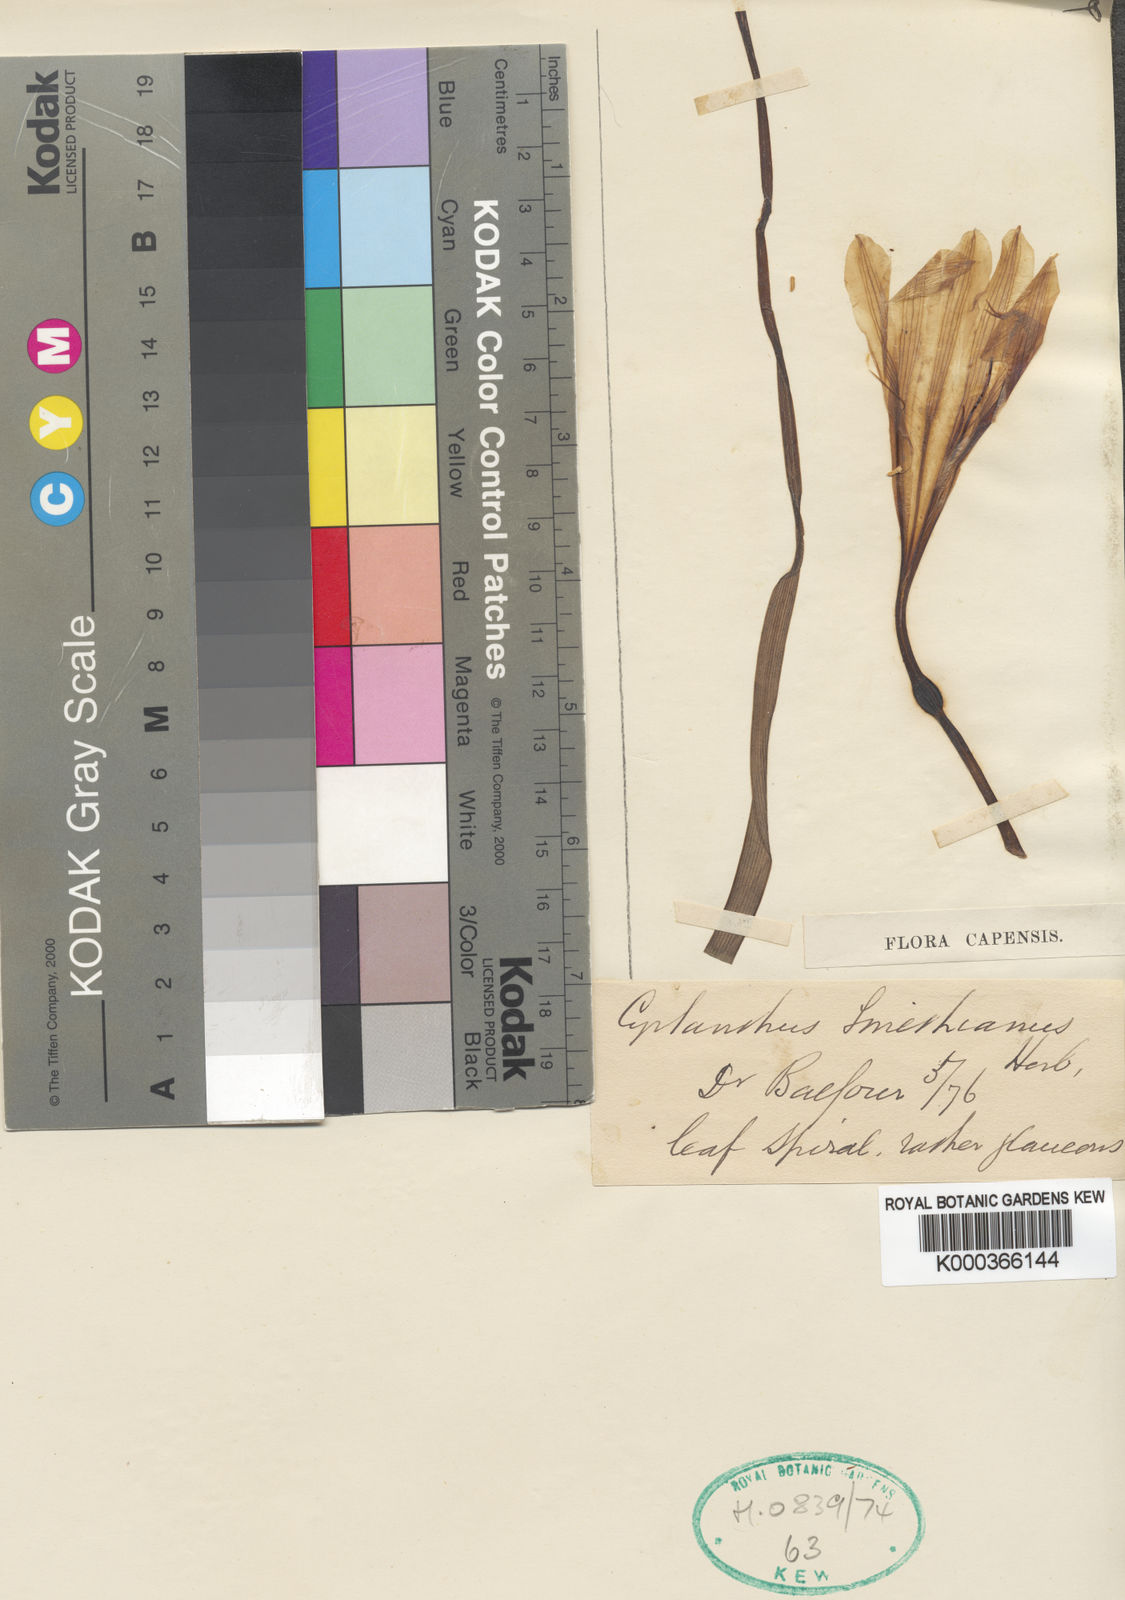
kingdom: Plantae
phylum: Tracheophyta
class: Liliopsida
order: Asparagales
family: Amaryllidaceae
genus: Cyrtanthus
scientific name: Cyrtanthus smithiae
